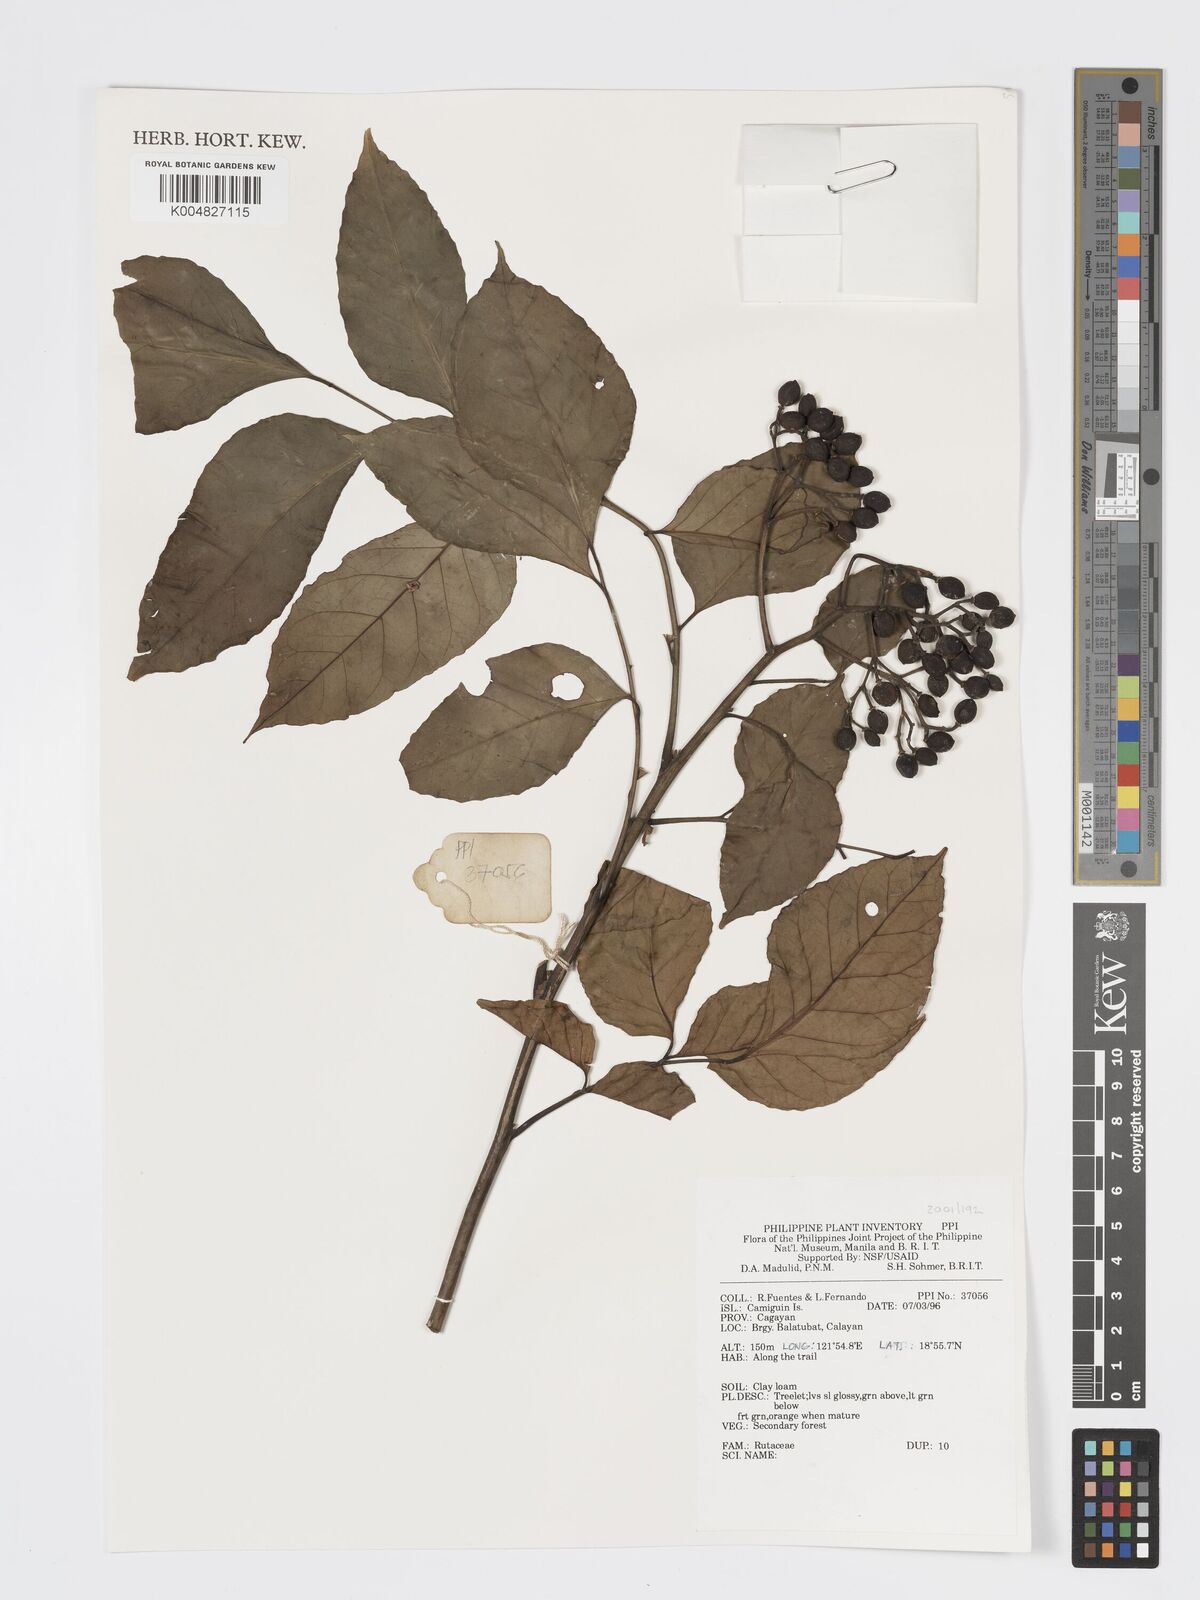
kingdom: Plantae
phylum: Tracheophyta
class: Magnoliopsida
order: Sapindales
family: Rutaceae
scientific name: Rutaceae
